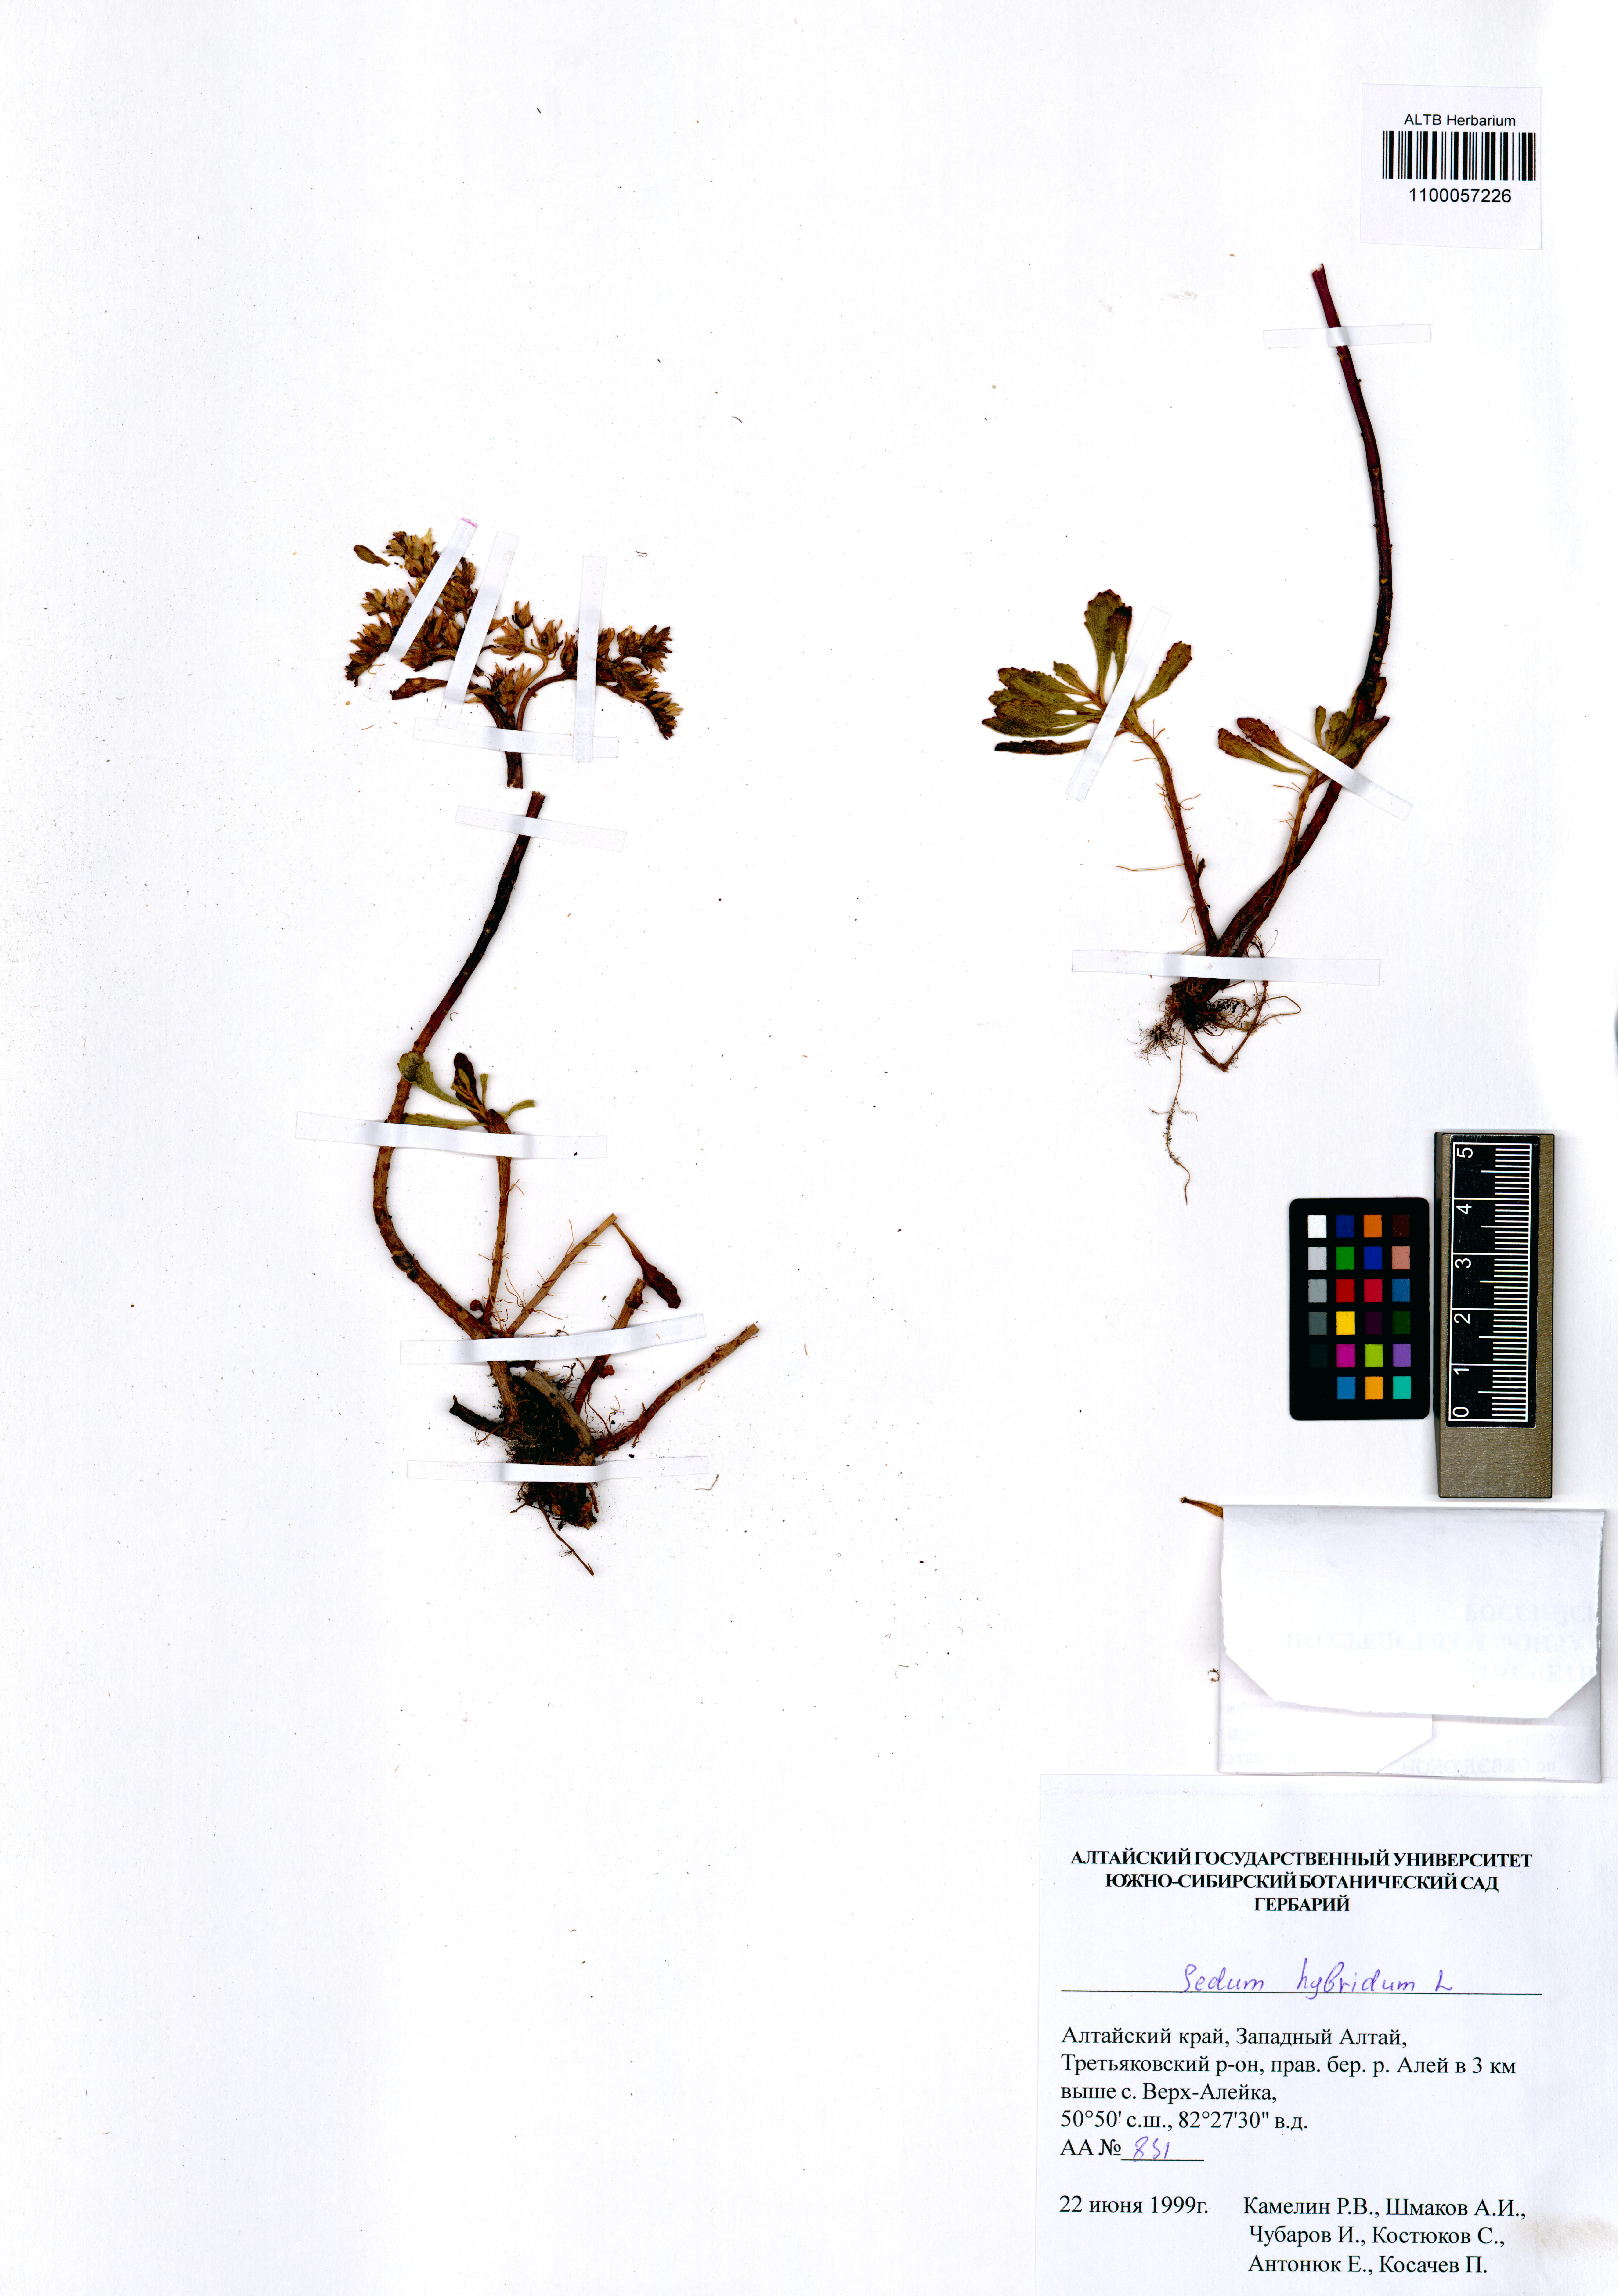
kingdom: Plantae
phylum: Tracheophyta
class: Magnoliopsida
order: Saxifragales
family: Crassulaceae
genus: Phedimus
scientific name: Phedimus hybridus
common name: Hybrid stonecrop
